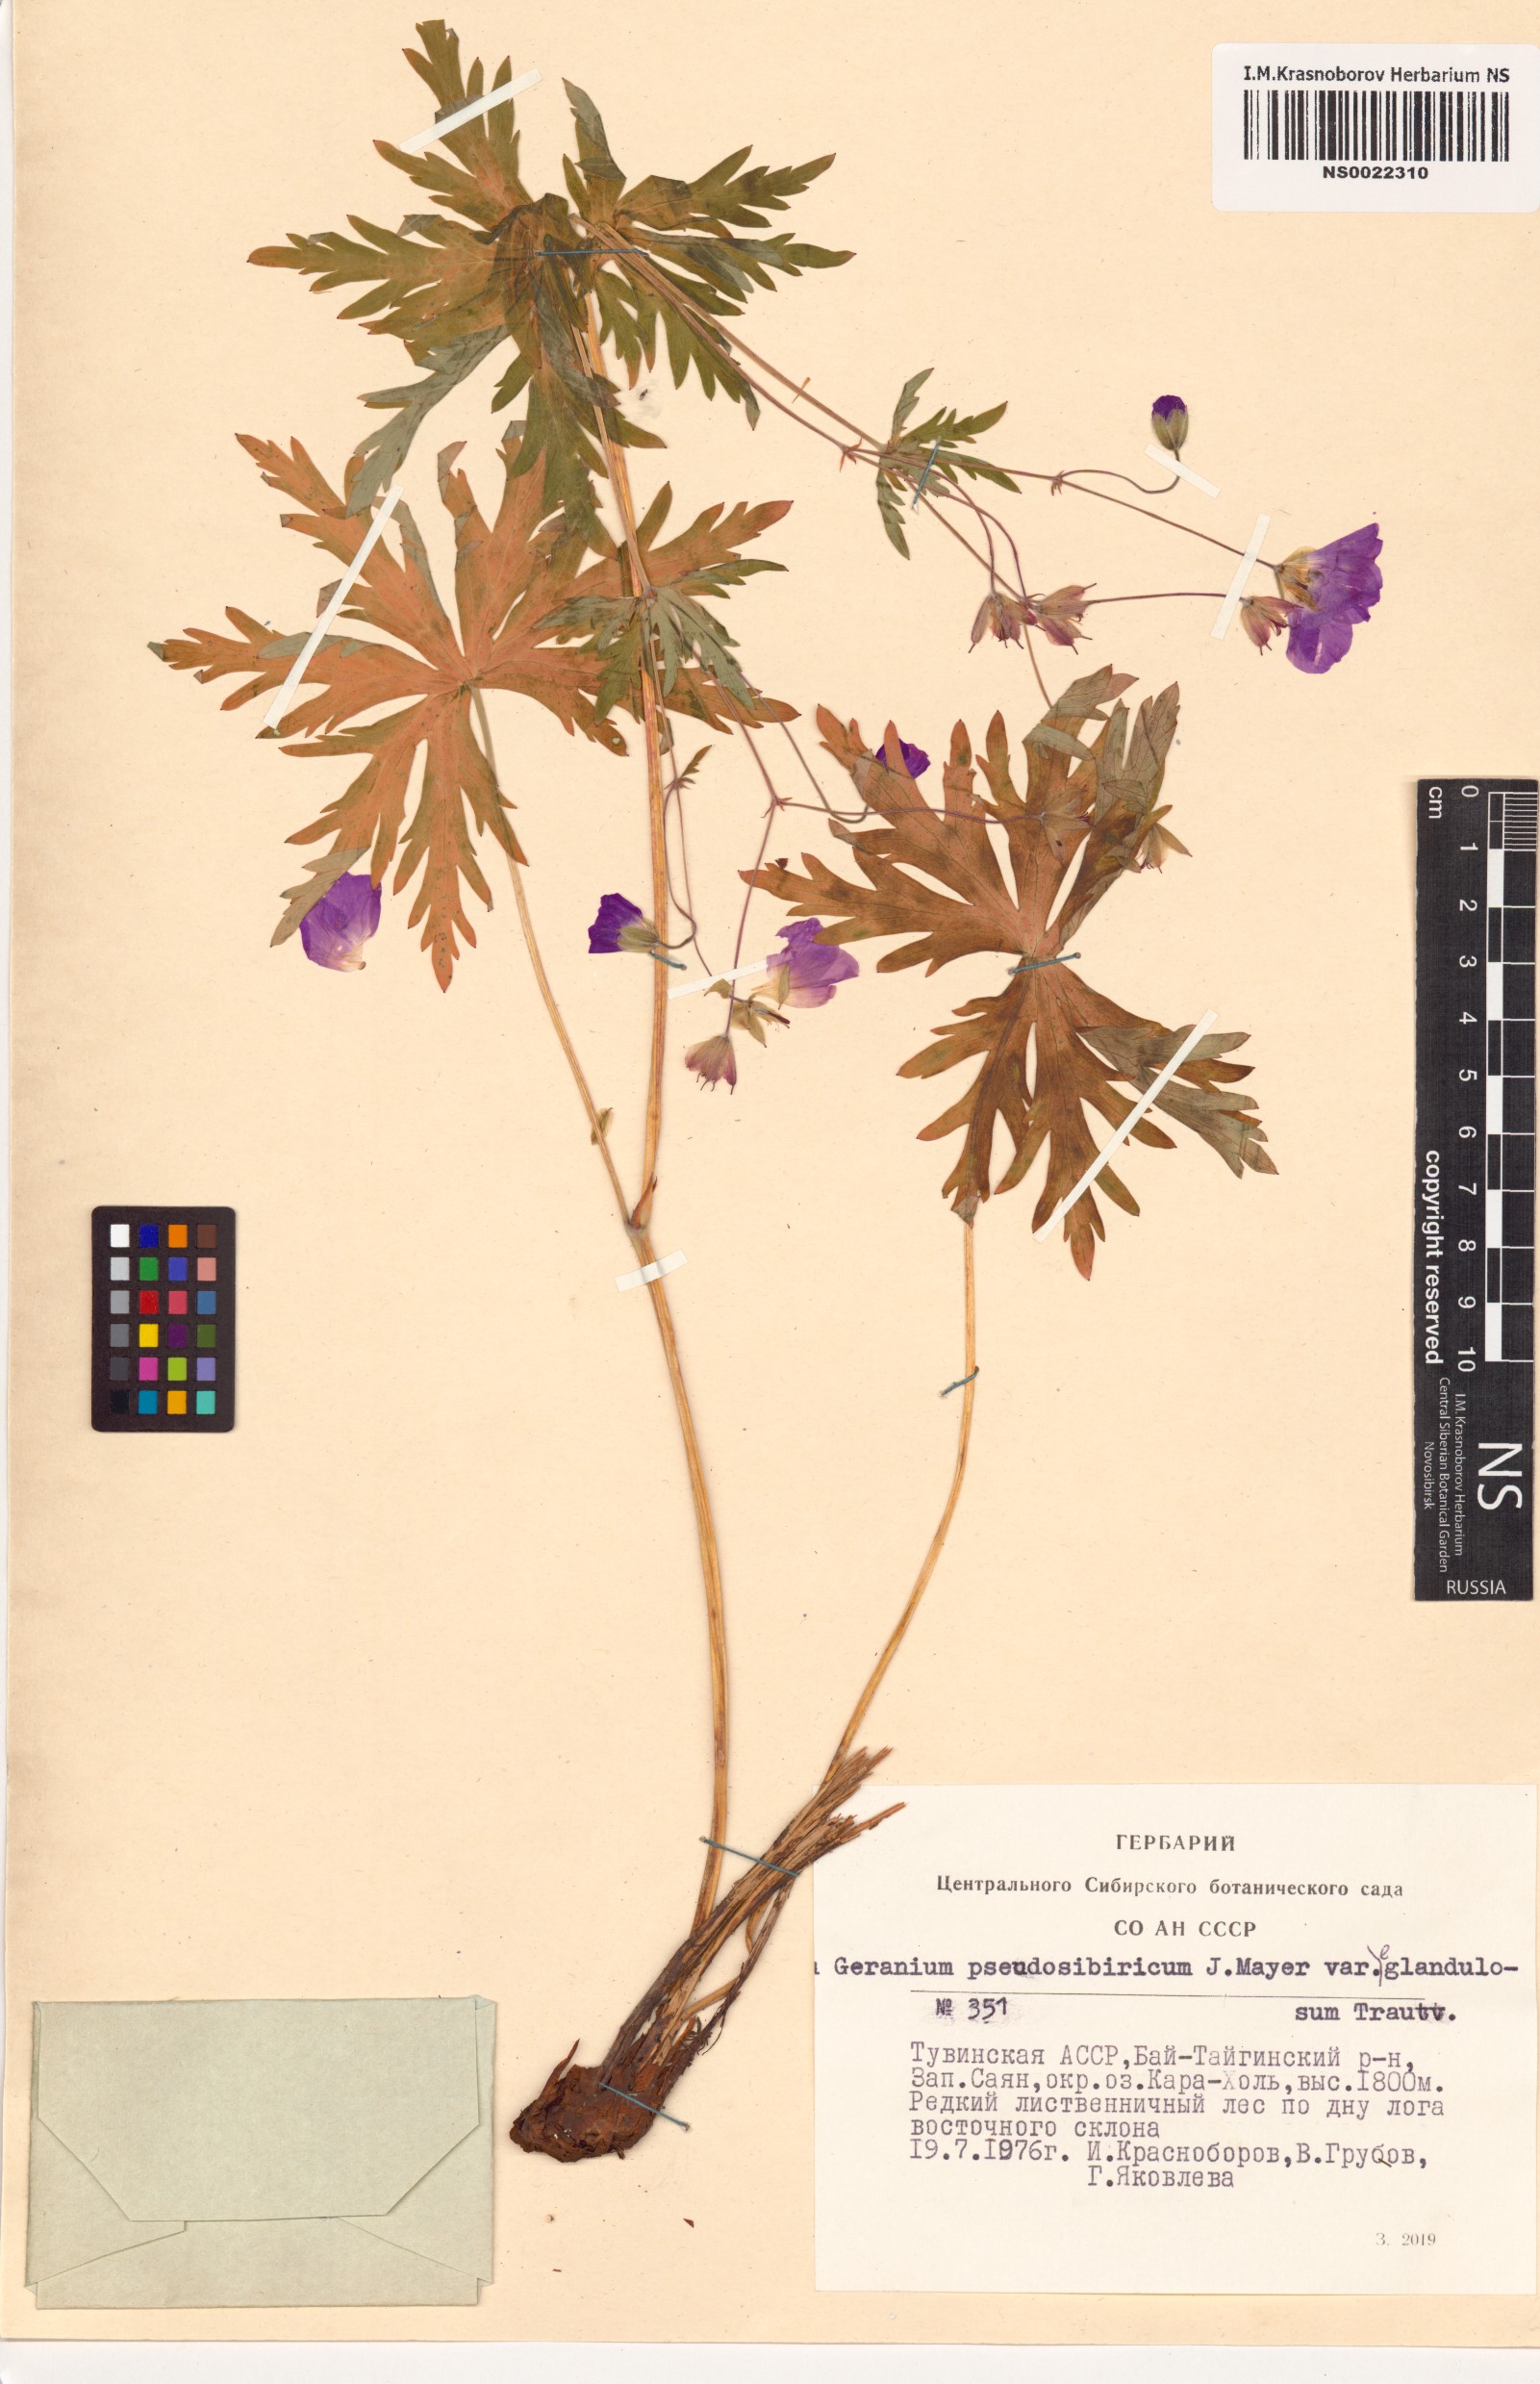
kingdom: Plantae
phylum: Tracheophyta
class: Magnoliopsida
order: Geraniales
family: Geraniaceae
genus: Geranium
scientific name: Geranium pseudosibiricum
